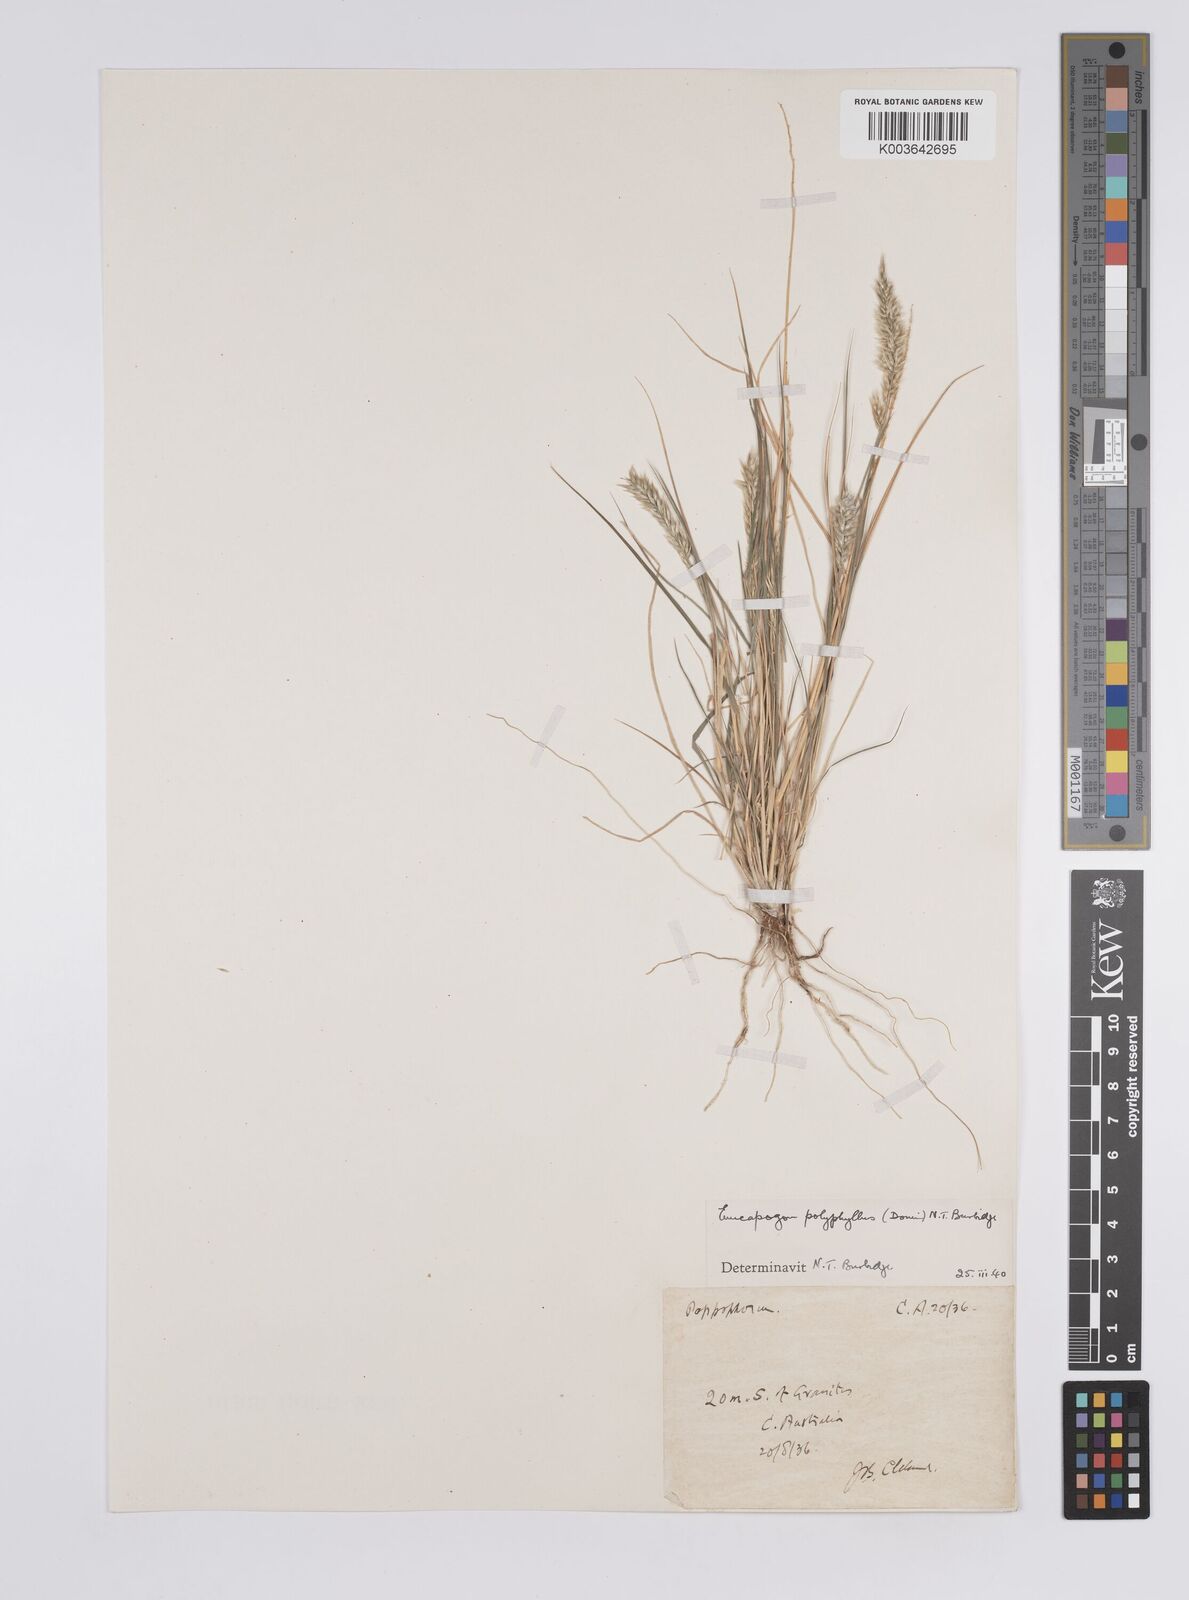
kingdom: Plantae
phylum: Tracheophyta
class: Liliopsida
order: Poales
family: Poaceae
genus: Enneapogon
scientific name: Enneapogon polyphyllus
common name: Leafy nineawn
